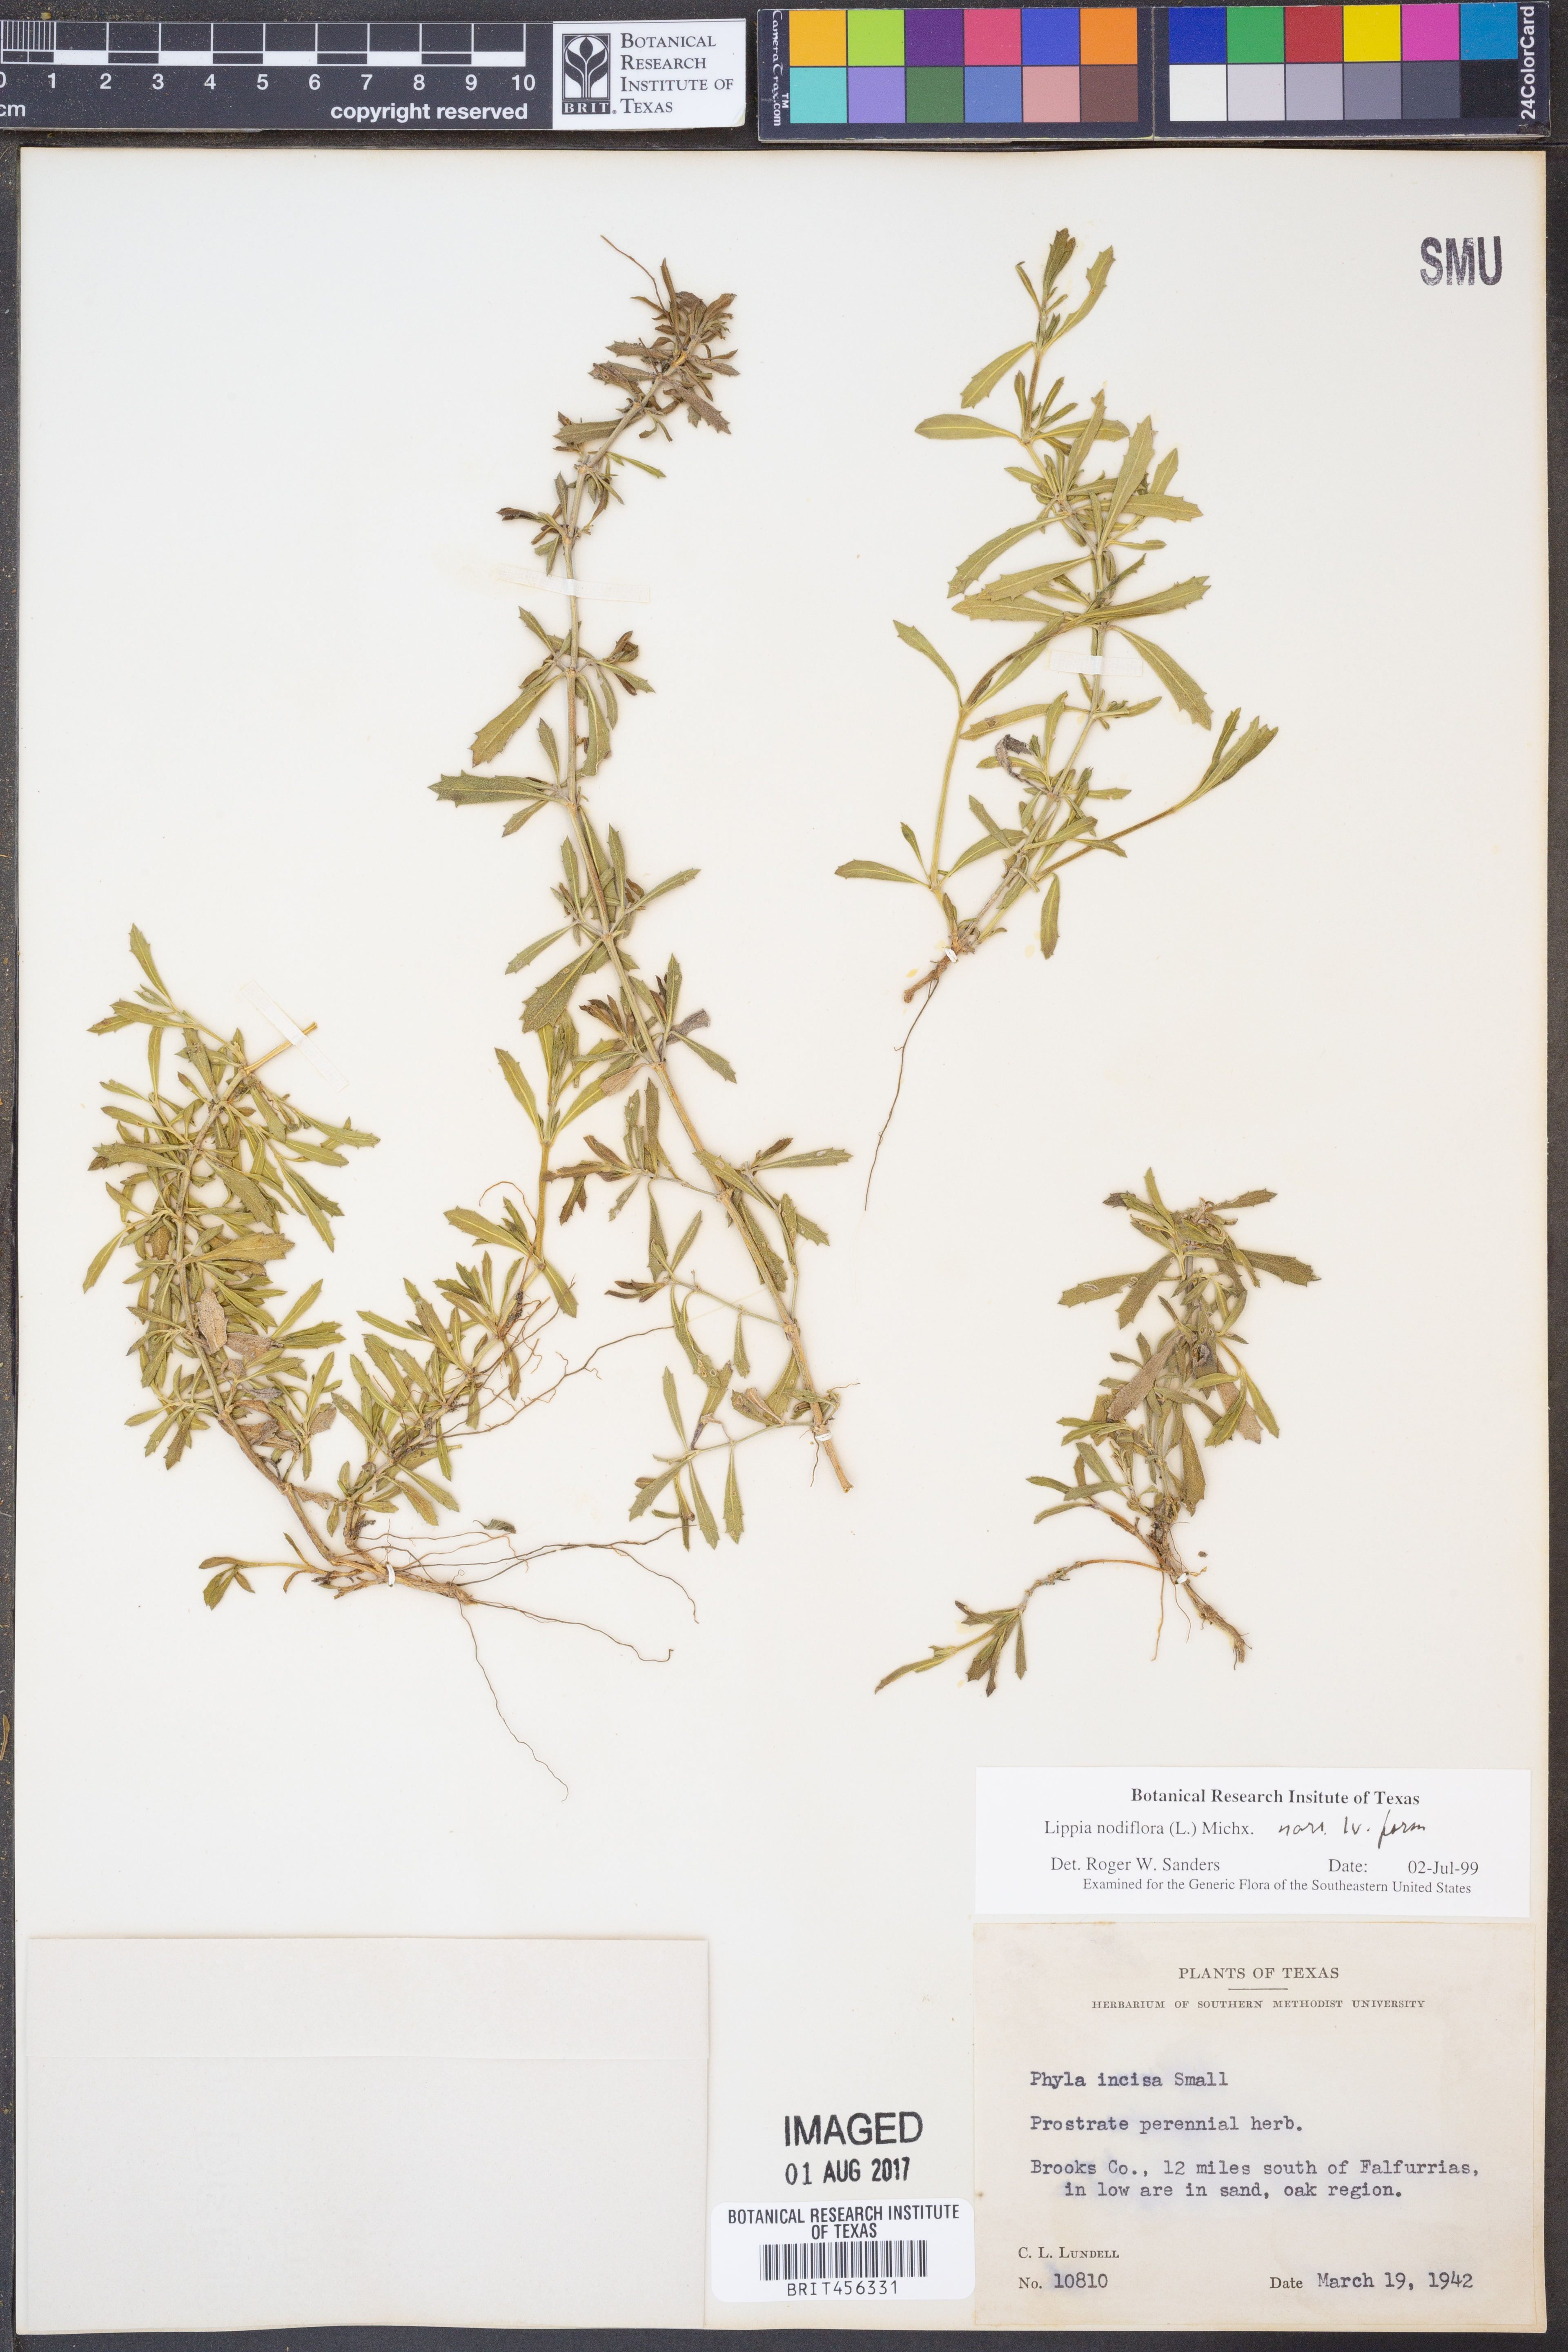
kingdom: Plantae
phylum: Tracheophyta
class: Magnoliopsida
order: Lamiales
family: Verbenaceae
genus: Phyla
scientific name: Phyla nodiflora
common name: Frogfruit
